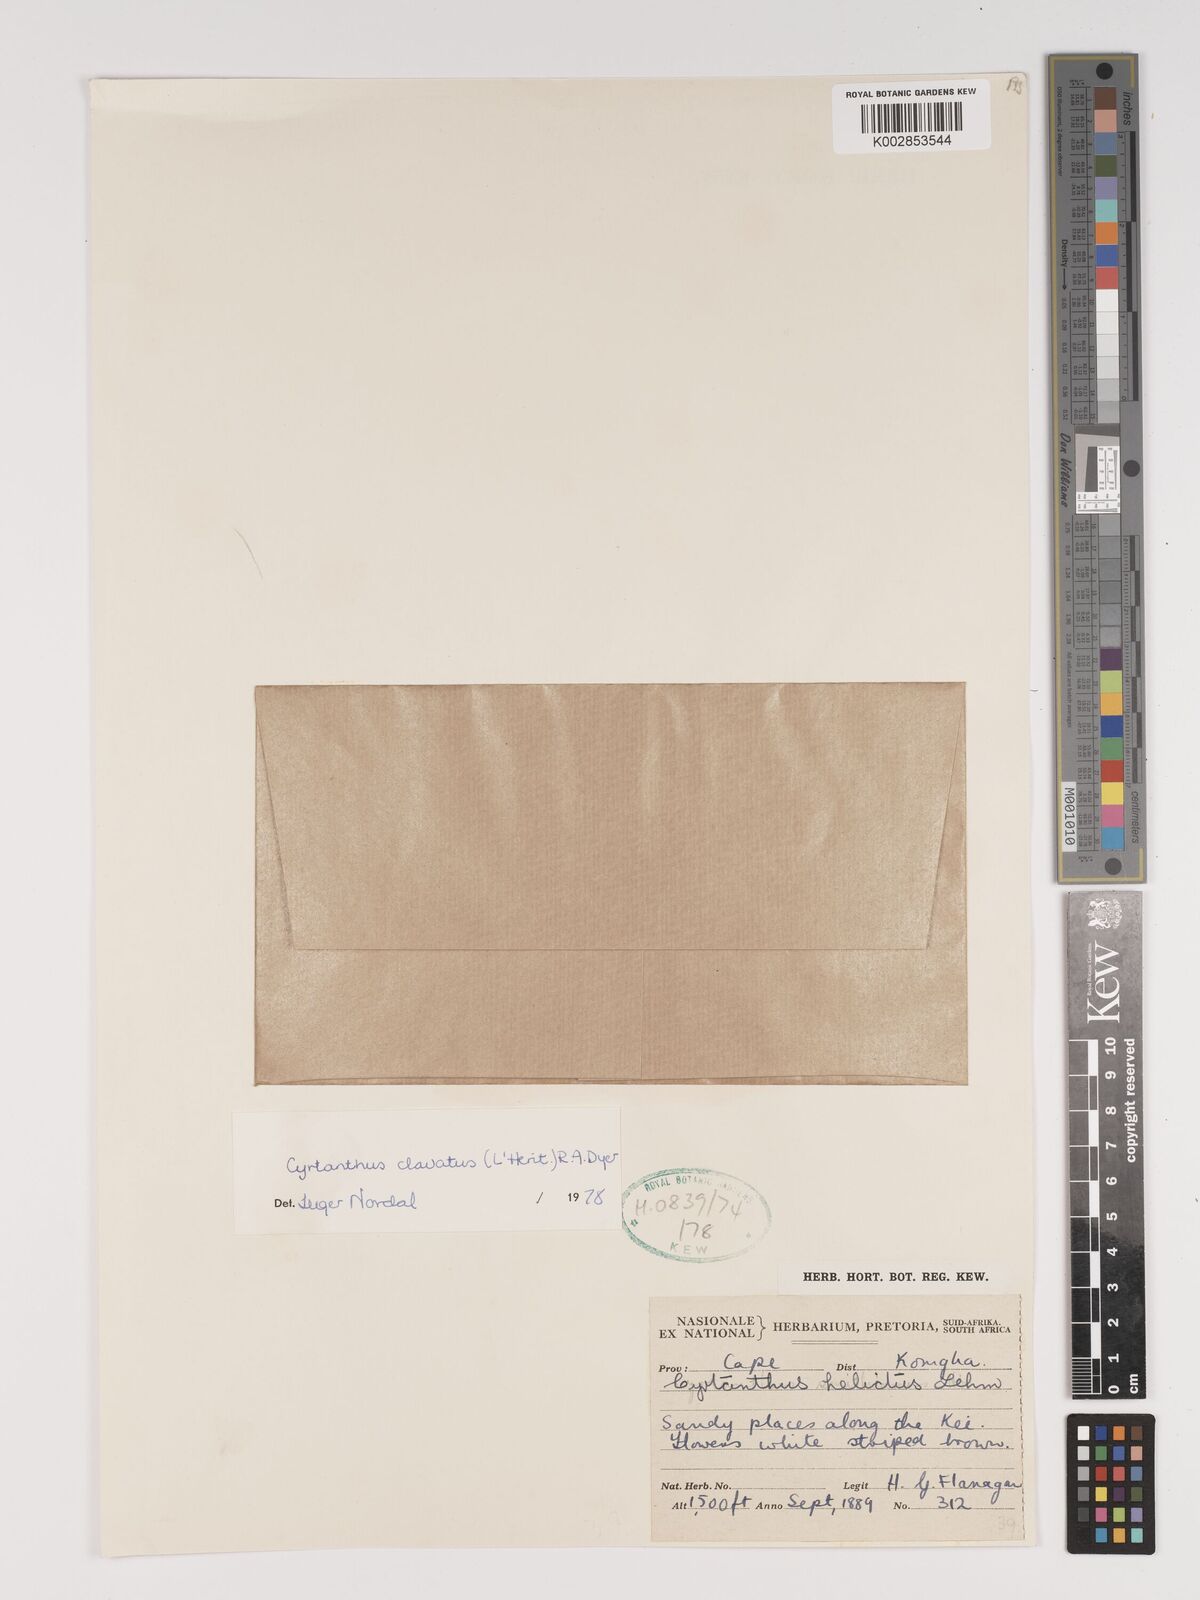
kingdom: Plantae
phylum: Tracheophyta
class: Liliopsida
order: Asparagales
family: Amaryllidaceae
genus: Cyrtanthus
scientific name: Cyrtanthus clavatus
